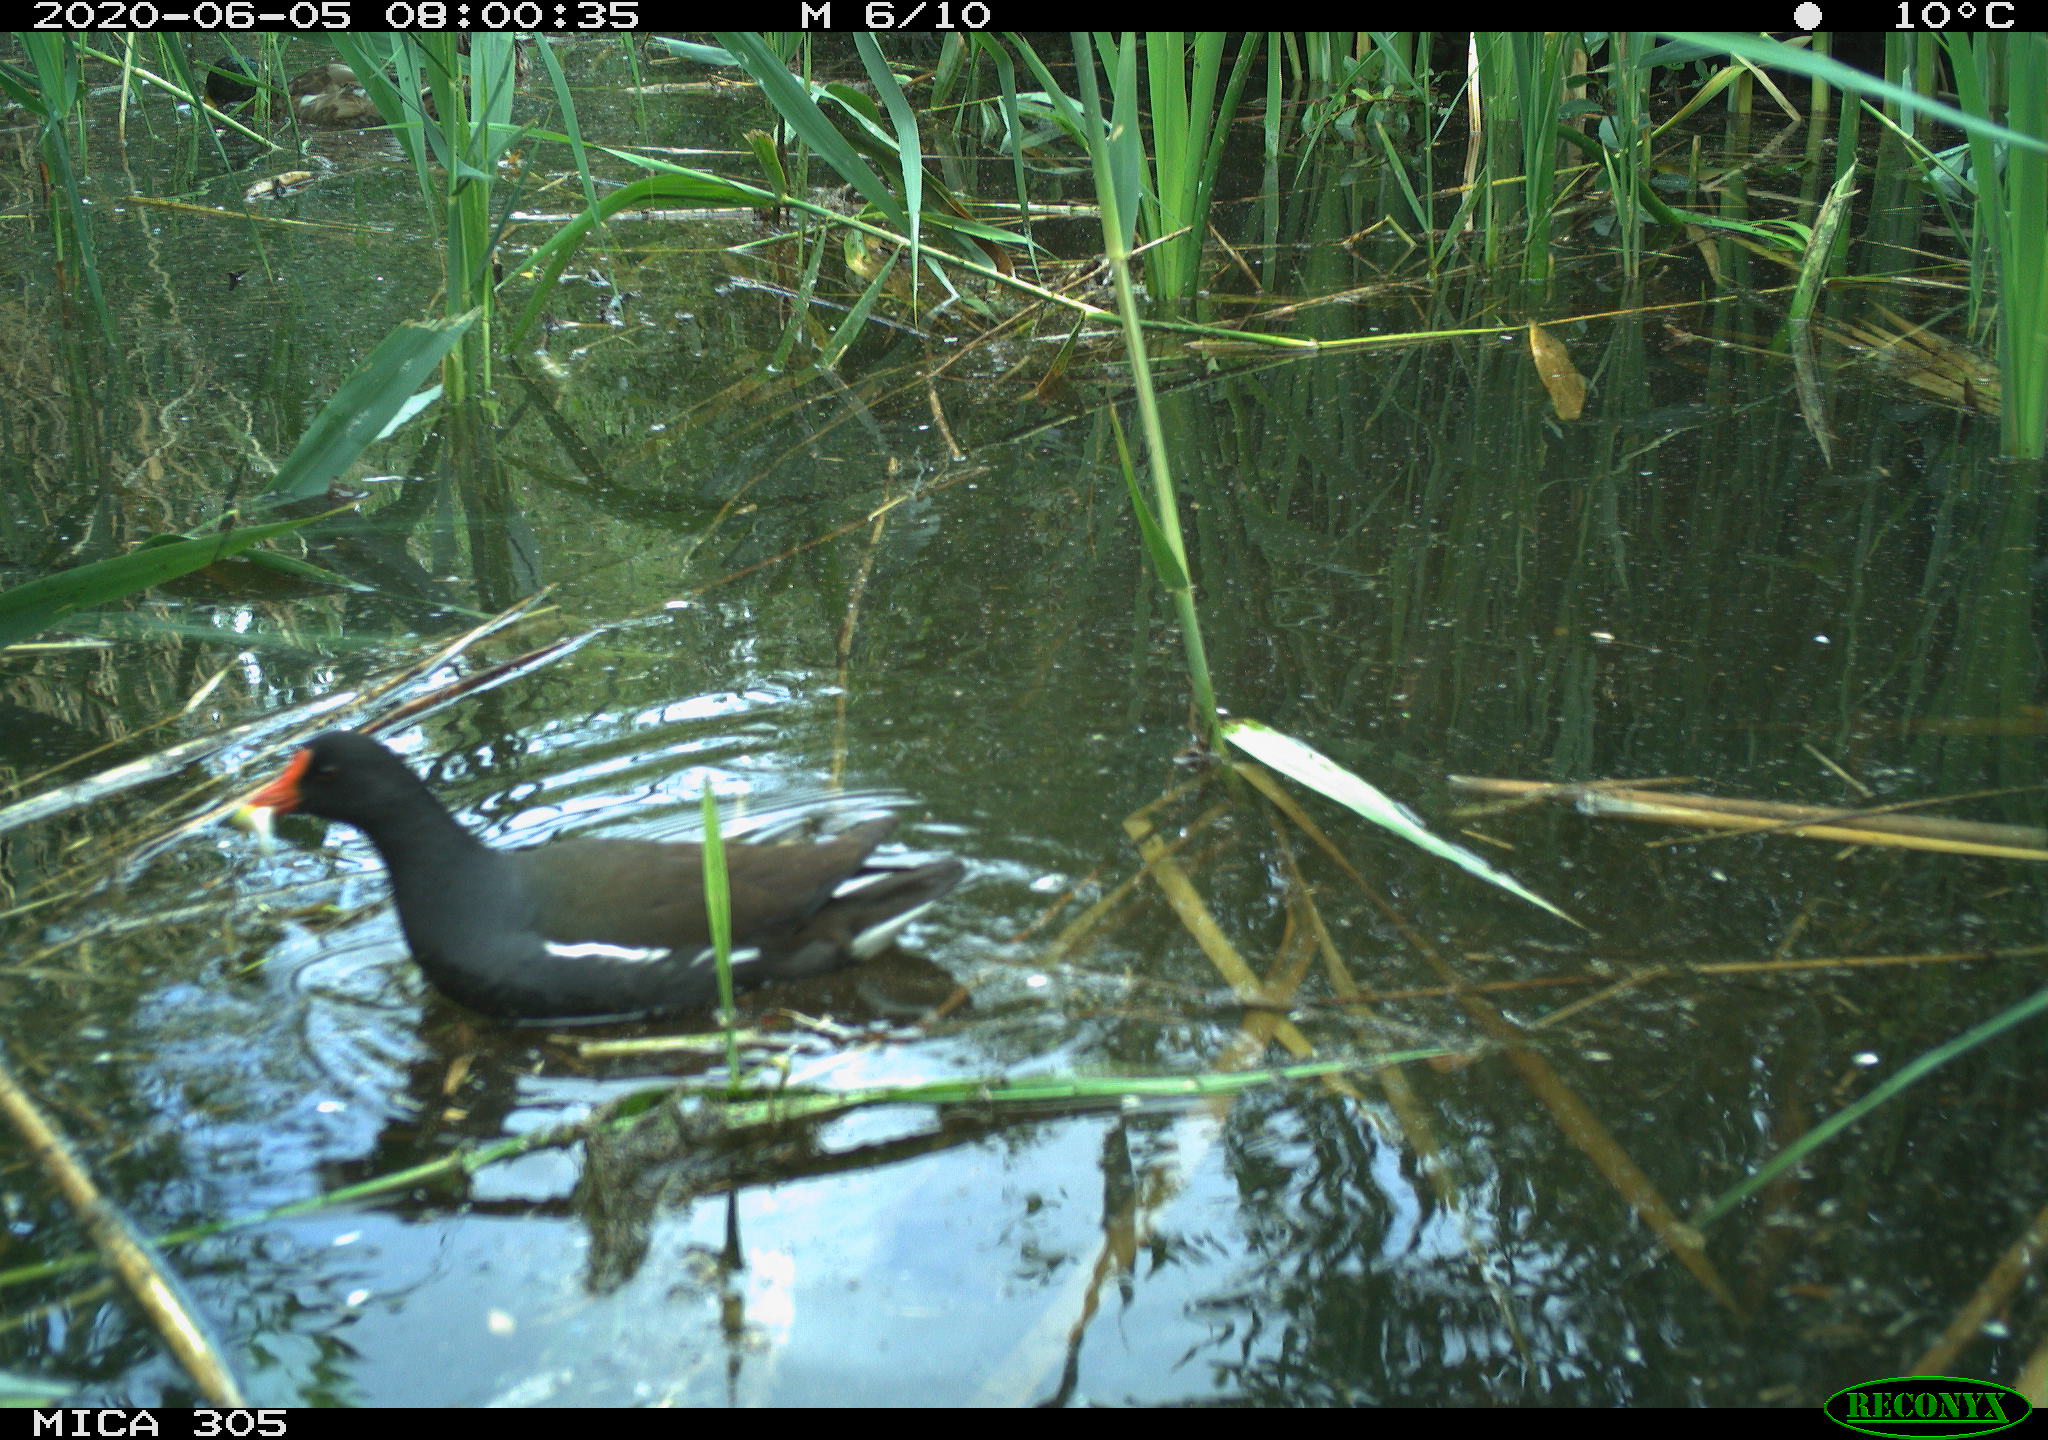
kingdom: Animalia
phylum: Chordata
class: Aves
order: Anseriformes
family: Anatidae
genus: Anas
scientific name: Anas platyrhynchos
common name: Mallard
